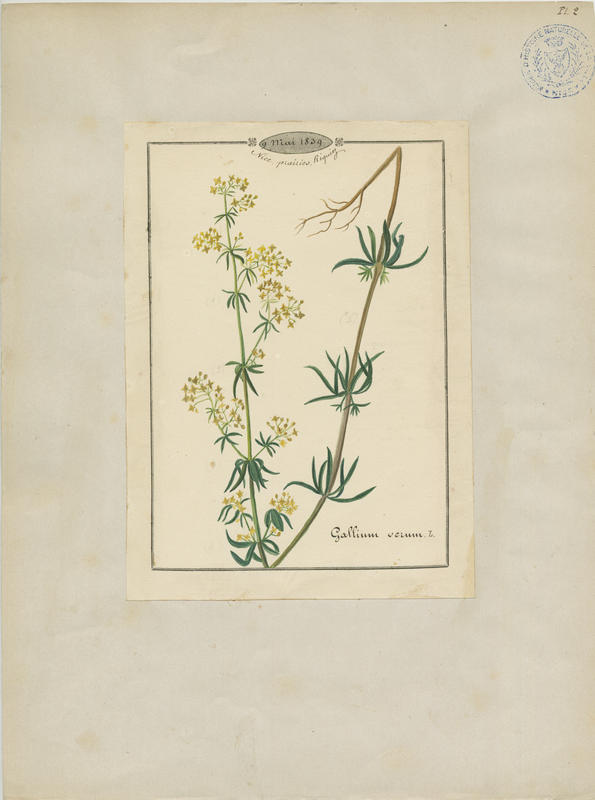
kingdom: Plantae
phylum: Tracheophyta
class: Magnoliopsida
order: Gentianales
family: Rubiaceae
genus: Galium
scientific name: Galium verum
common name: Lady's bedstraw
